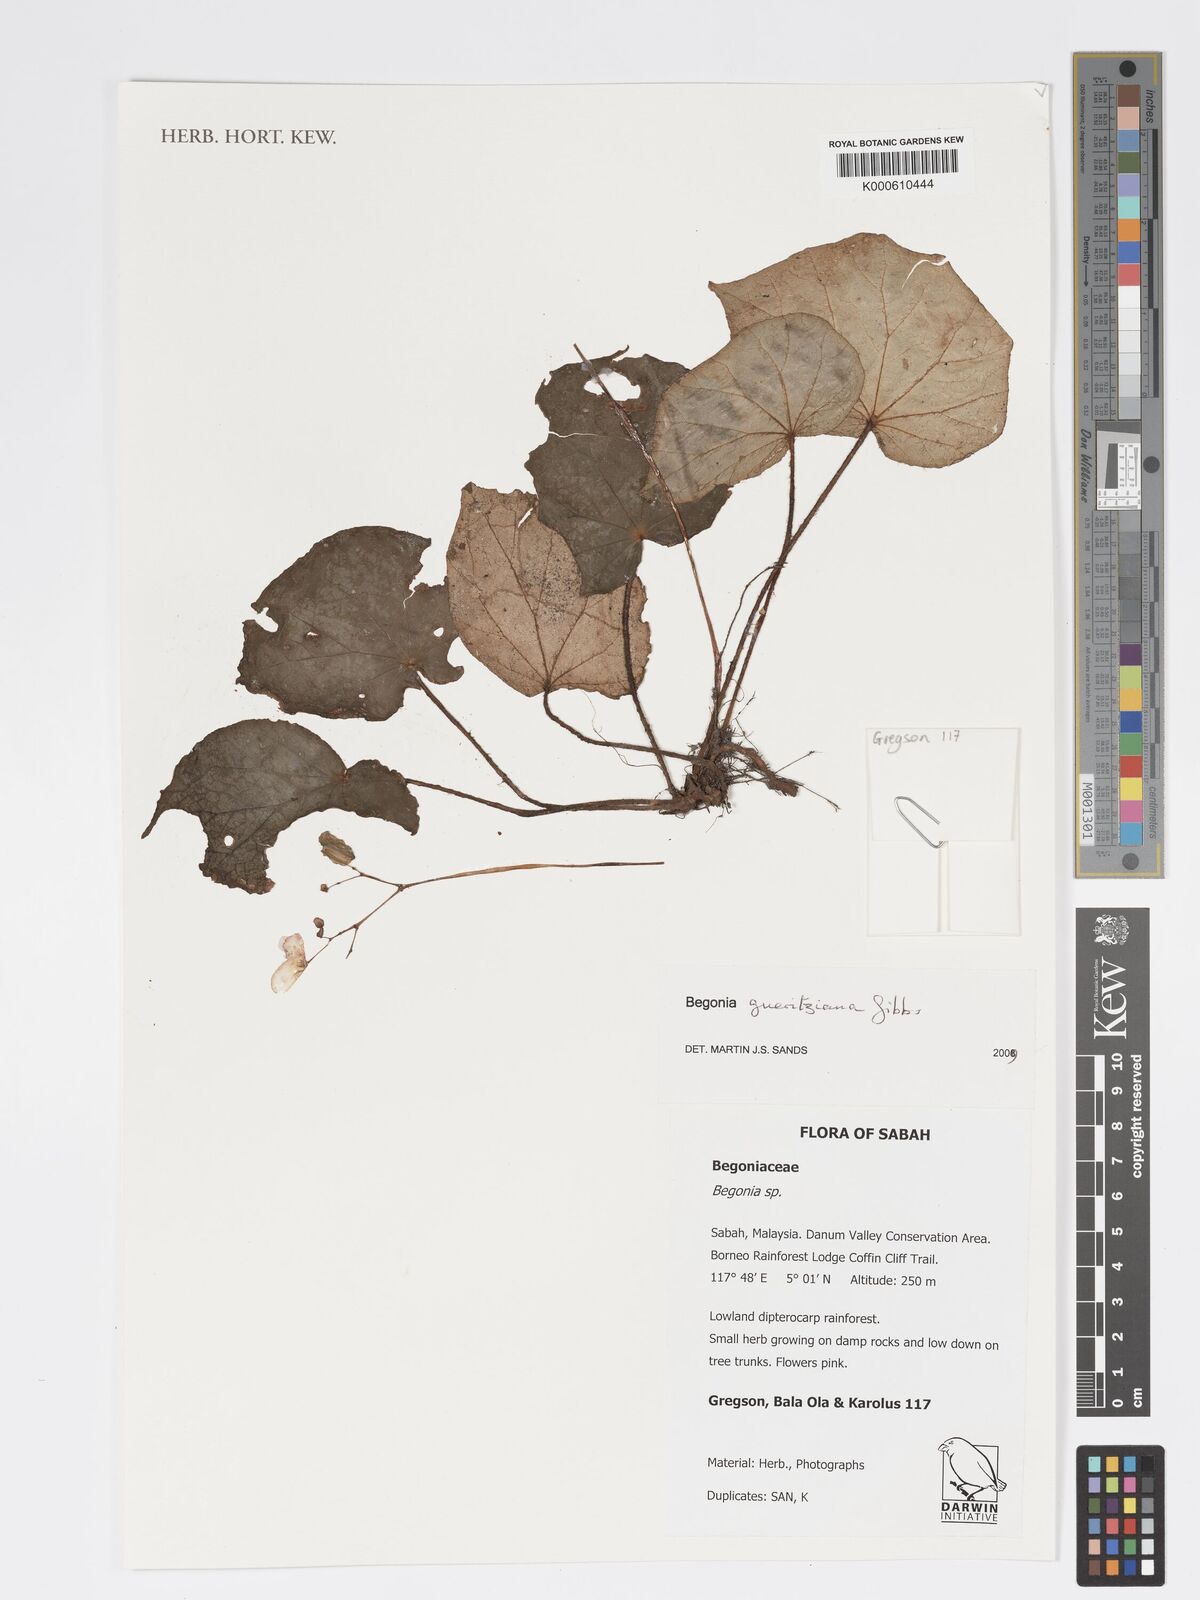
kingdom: Plantae
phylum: Tracheophyta
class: Magnoliopsida
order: Cucurbitales
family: Begoniaceae
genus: Begonia
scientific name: Begonia gueritziana
